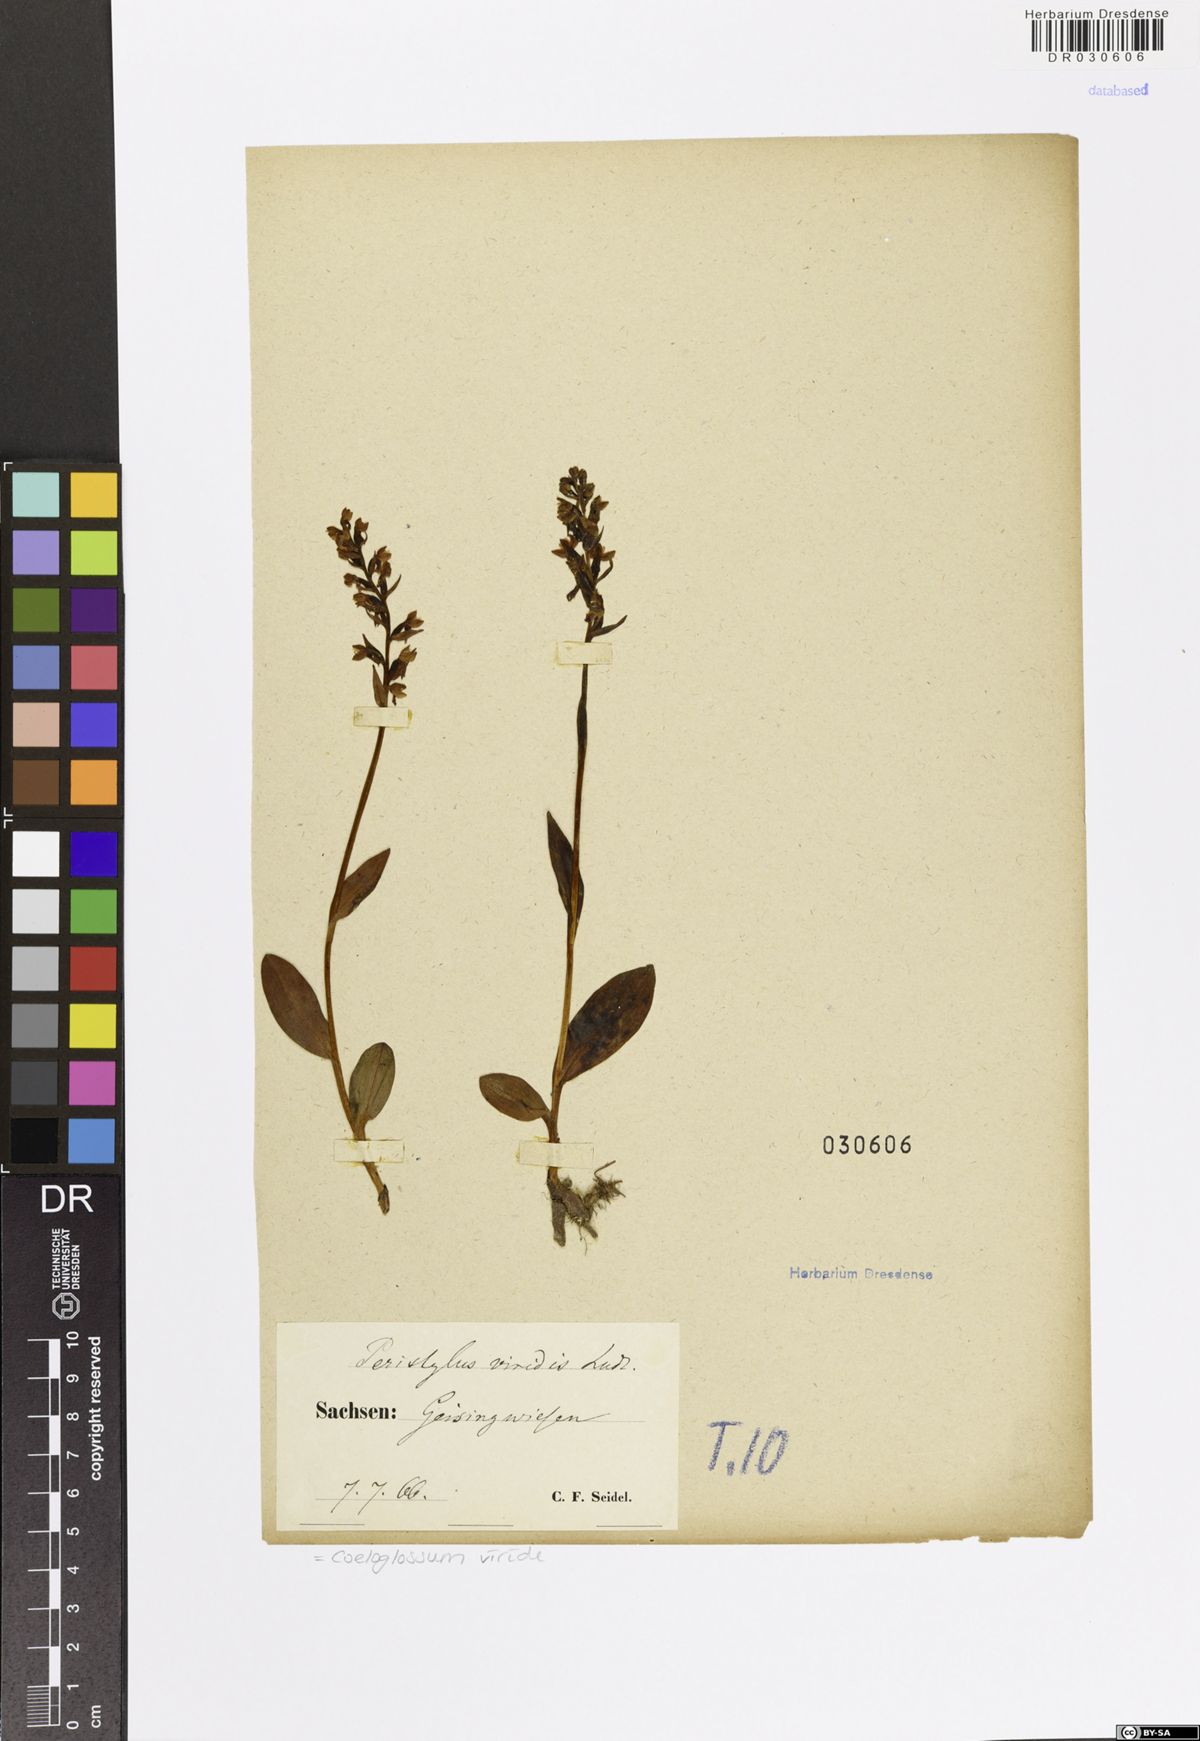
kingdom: Plantae
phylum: Tracheophyta
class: Liliopsida
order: Asparagales
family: Orchidaceae
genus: Dactylorhiza
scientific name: Dactylorhiza viridis
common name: Longbract frog orchid
